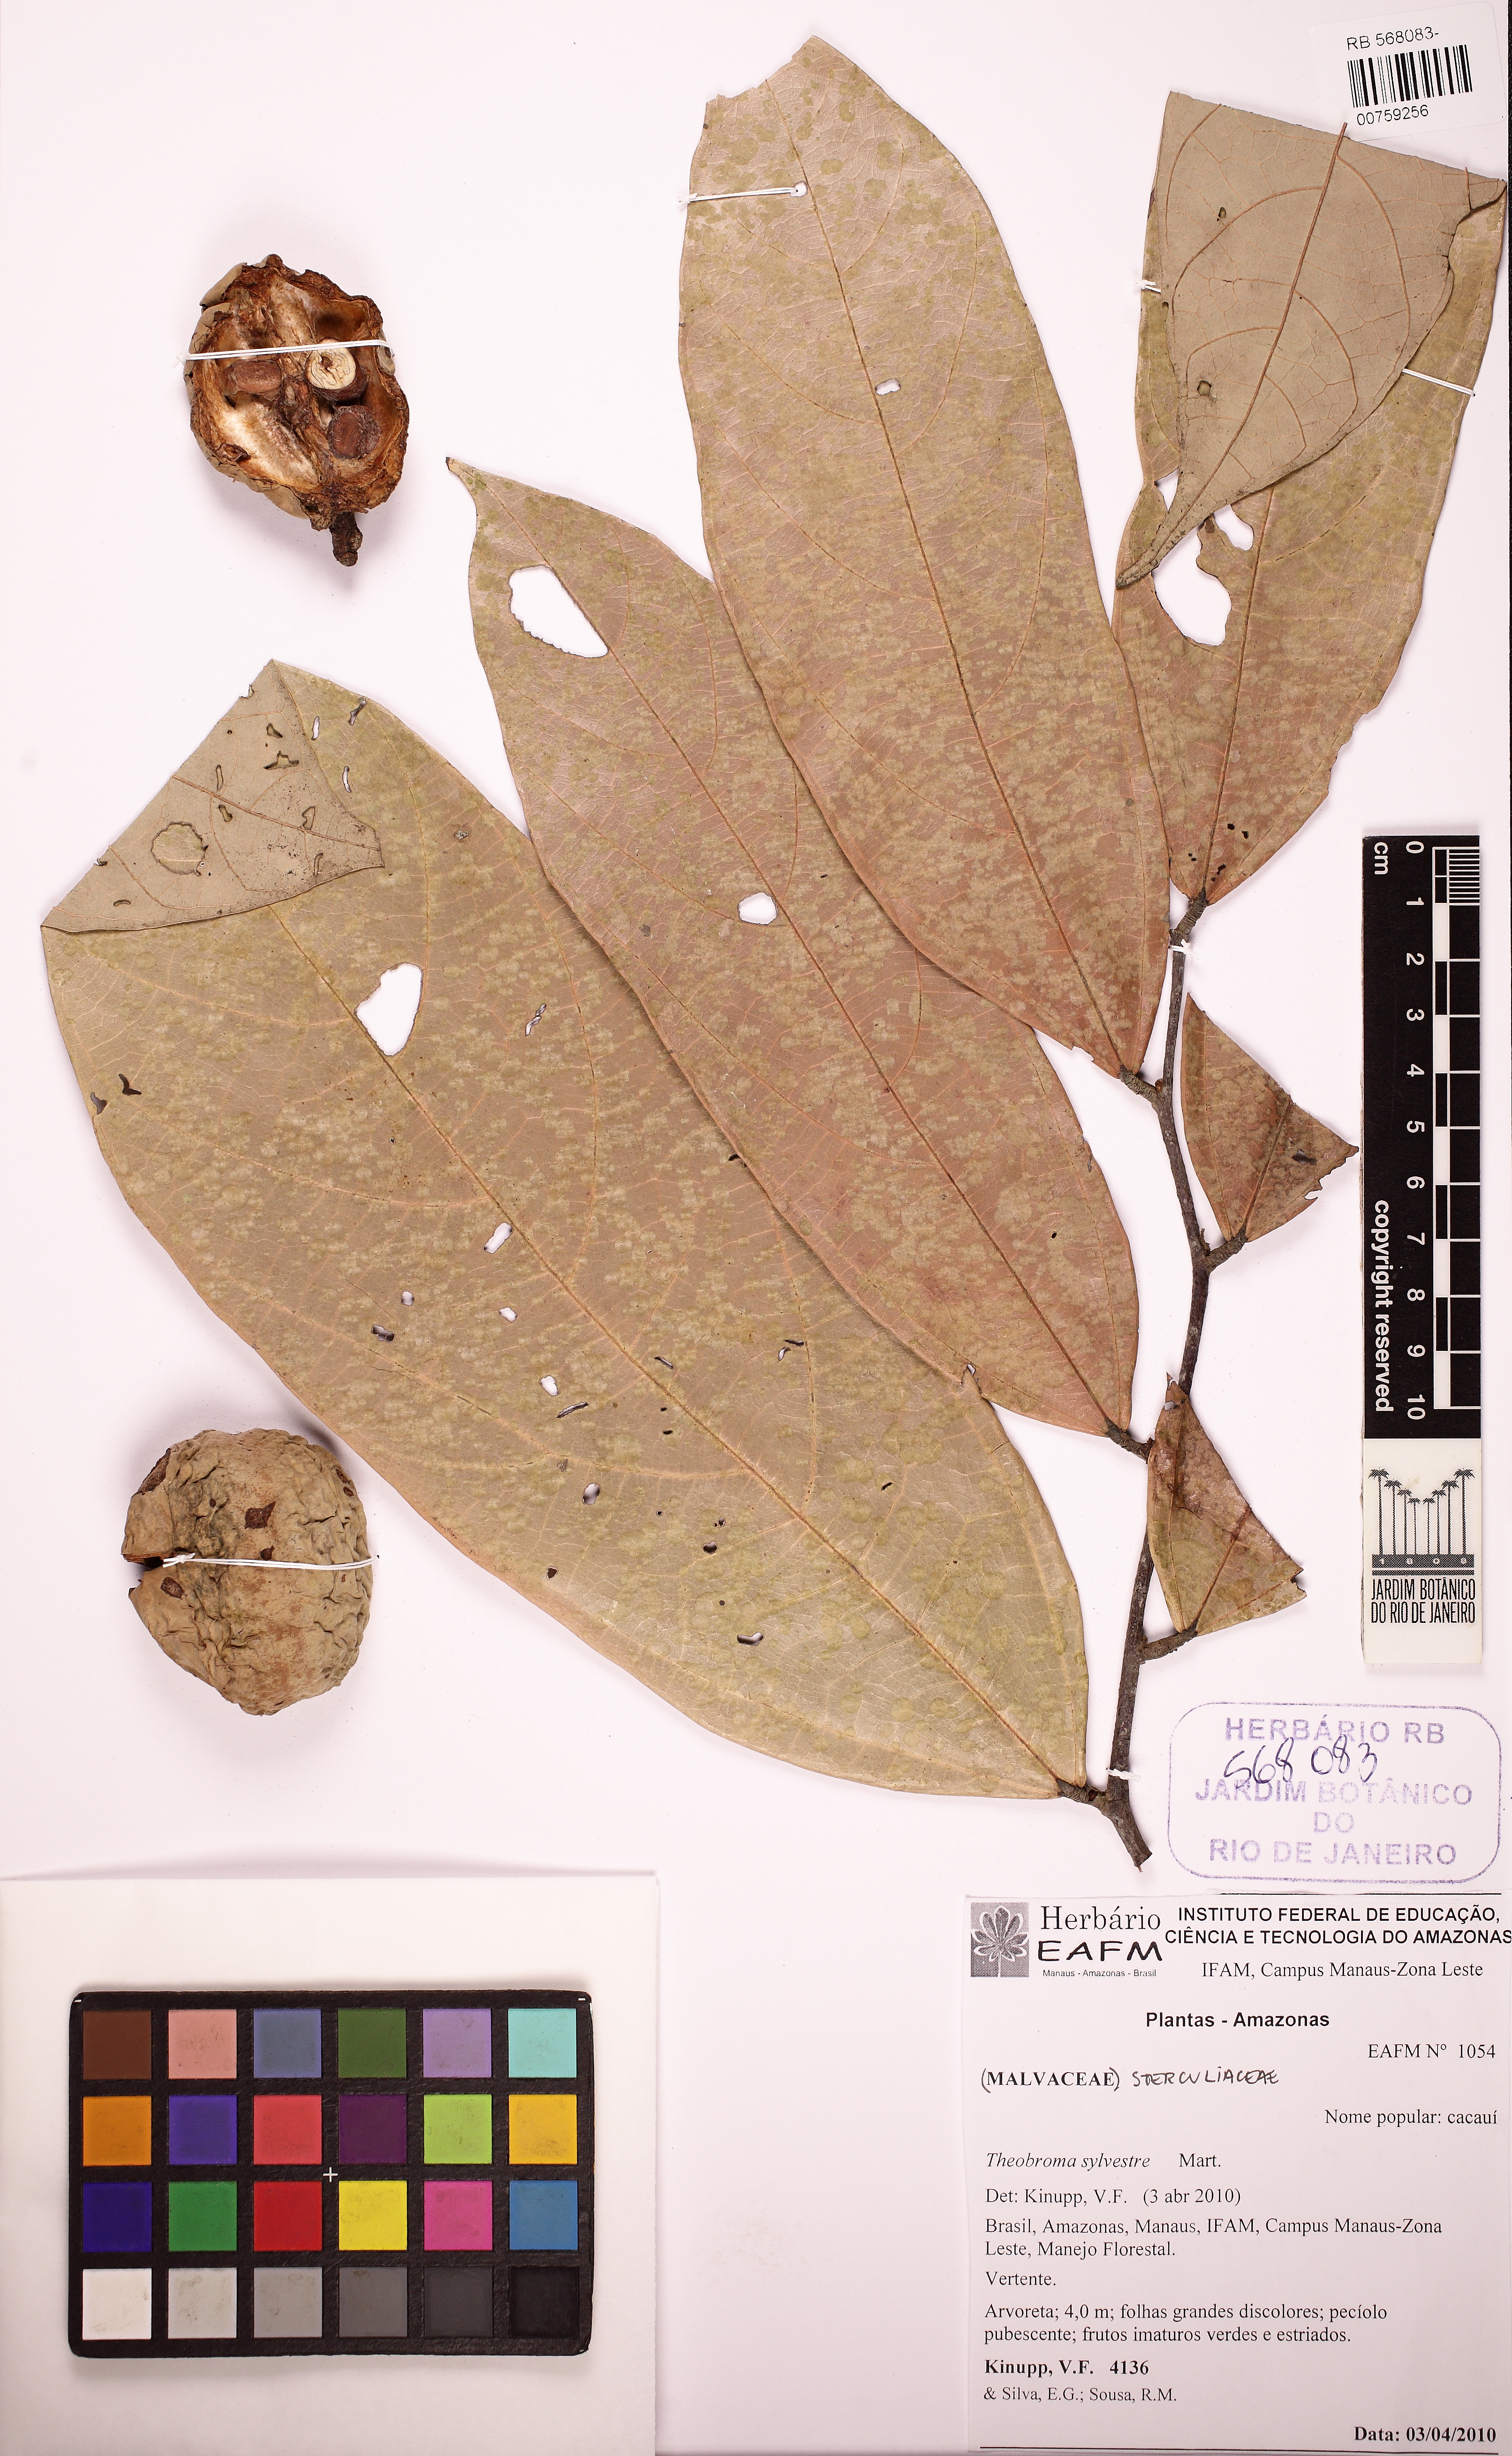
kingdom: Plantae
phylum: Tracheophyta
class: Magnoliopsida
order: Malvales
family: Malvaceae
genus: Theobroma
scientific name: Theobroma sylvestre
